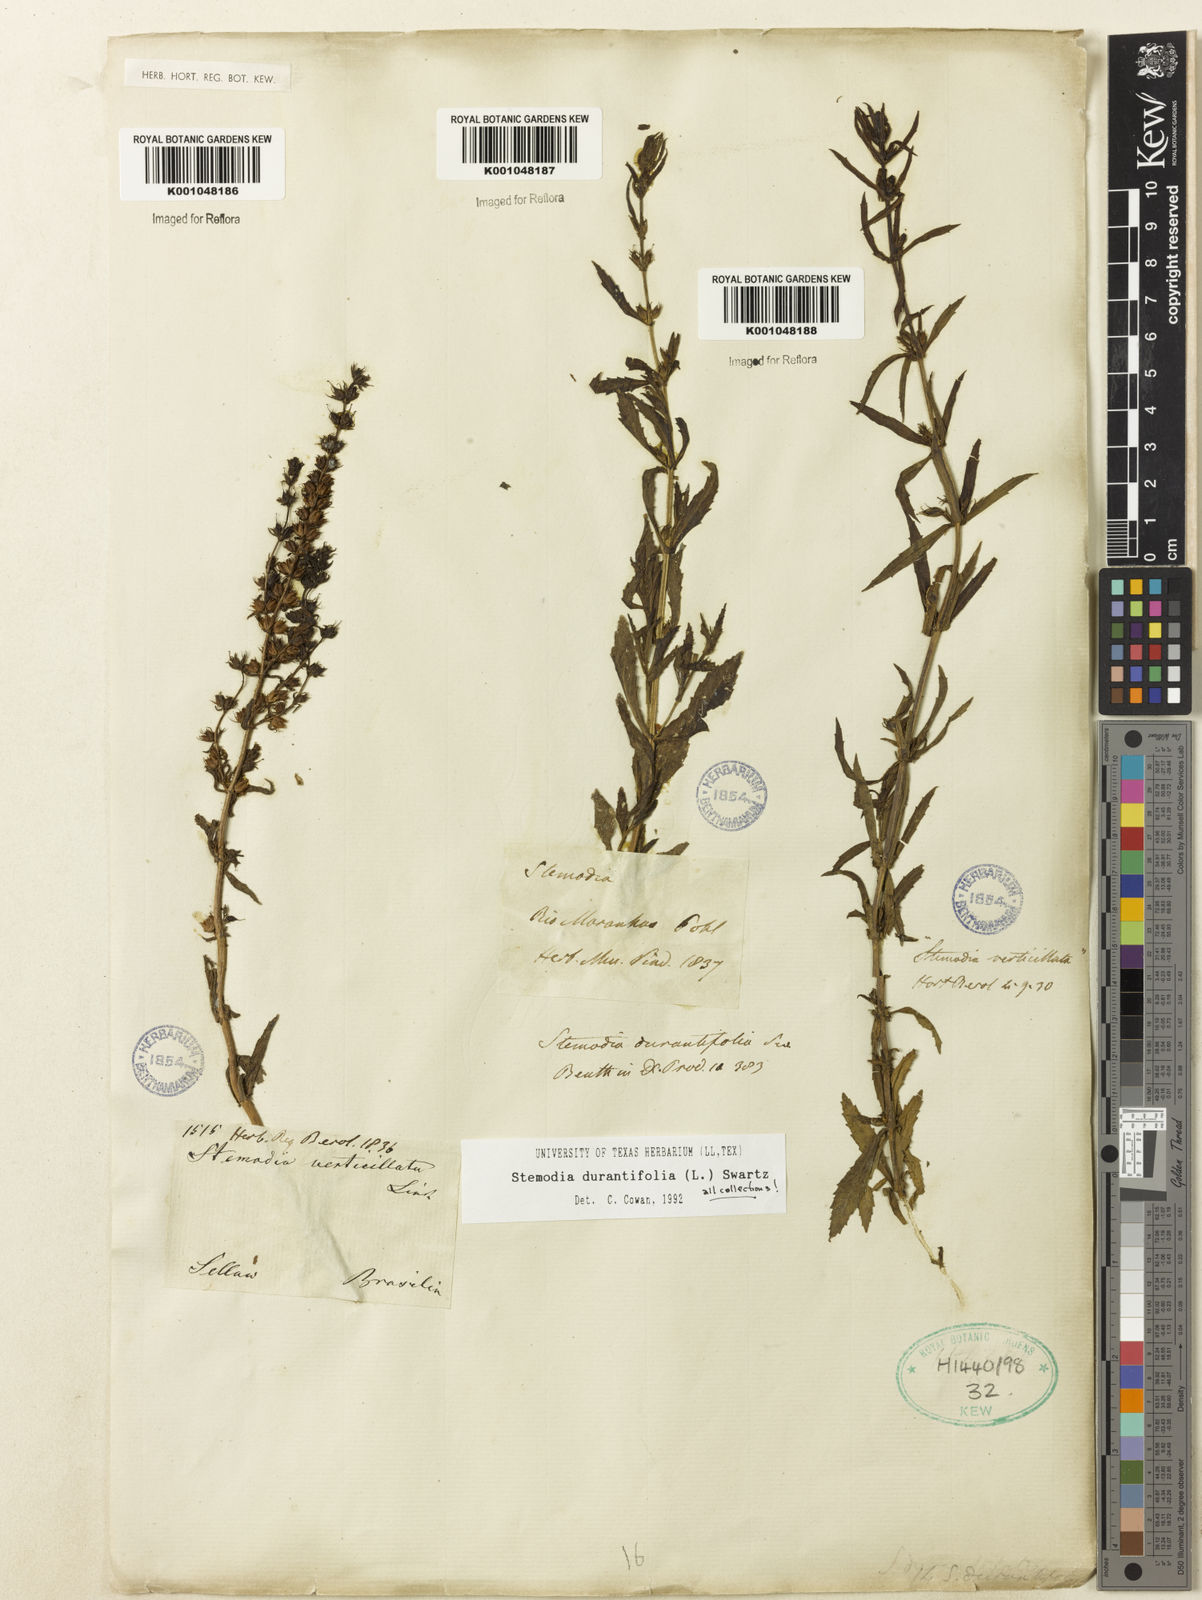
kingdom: Plantae
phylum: Tracheophyta
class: Magnoliopsida
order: Lamiales
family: Plantaginaceae
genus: Stemodia
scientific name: Stemodia durantifolia
